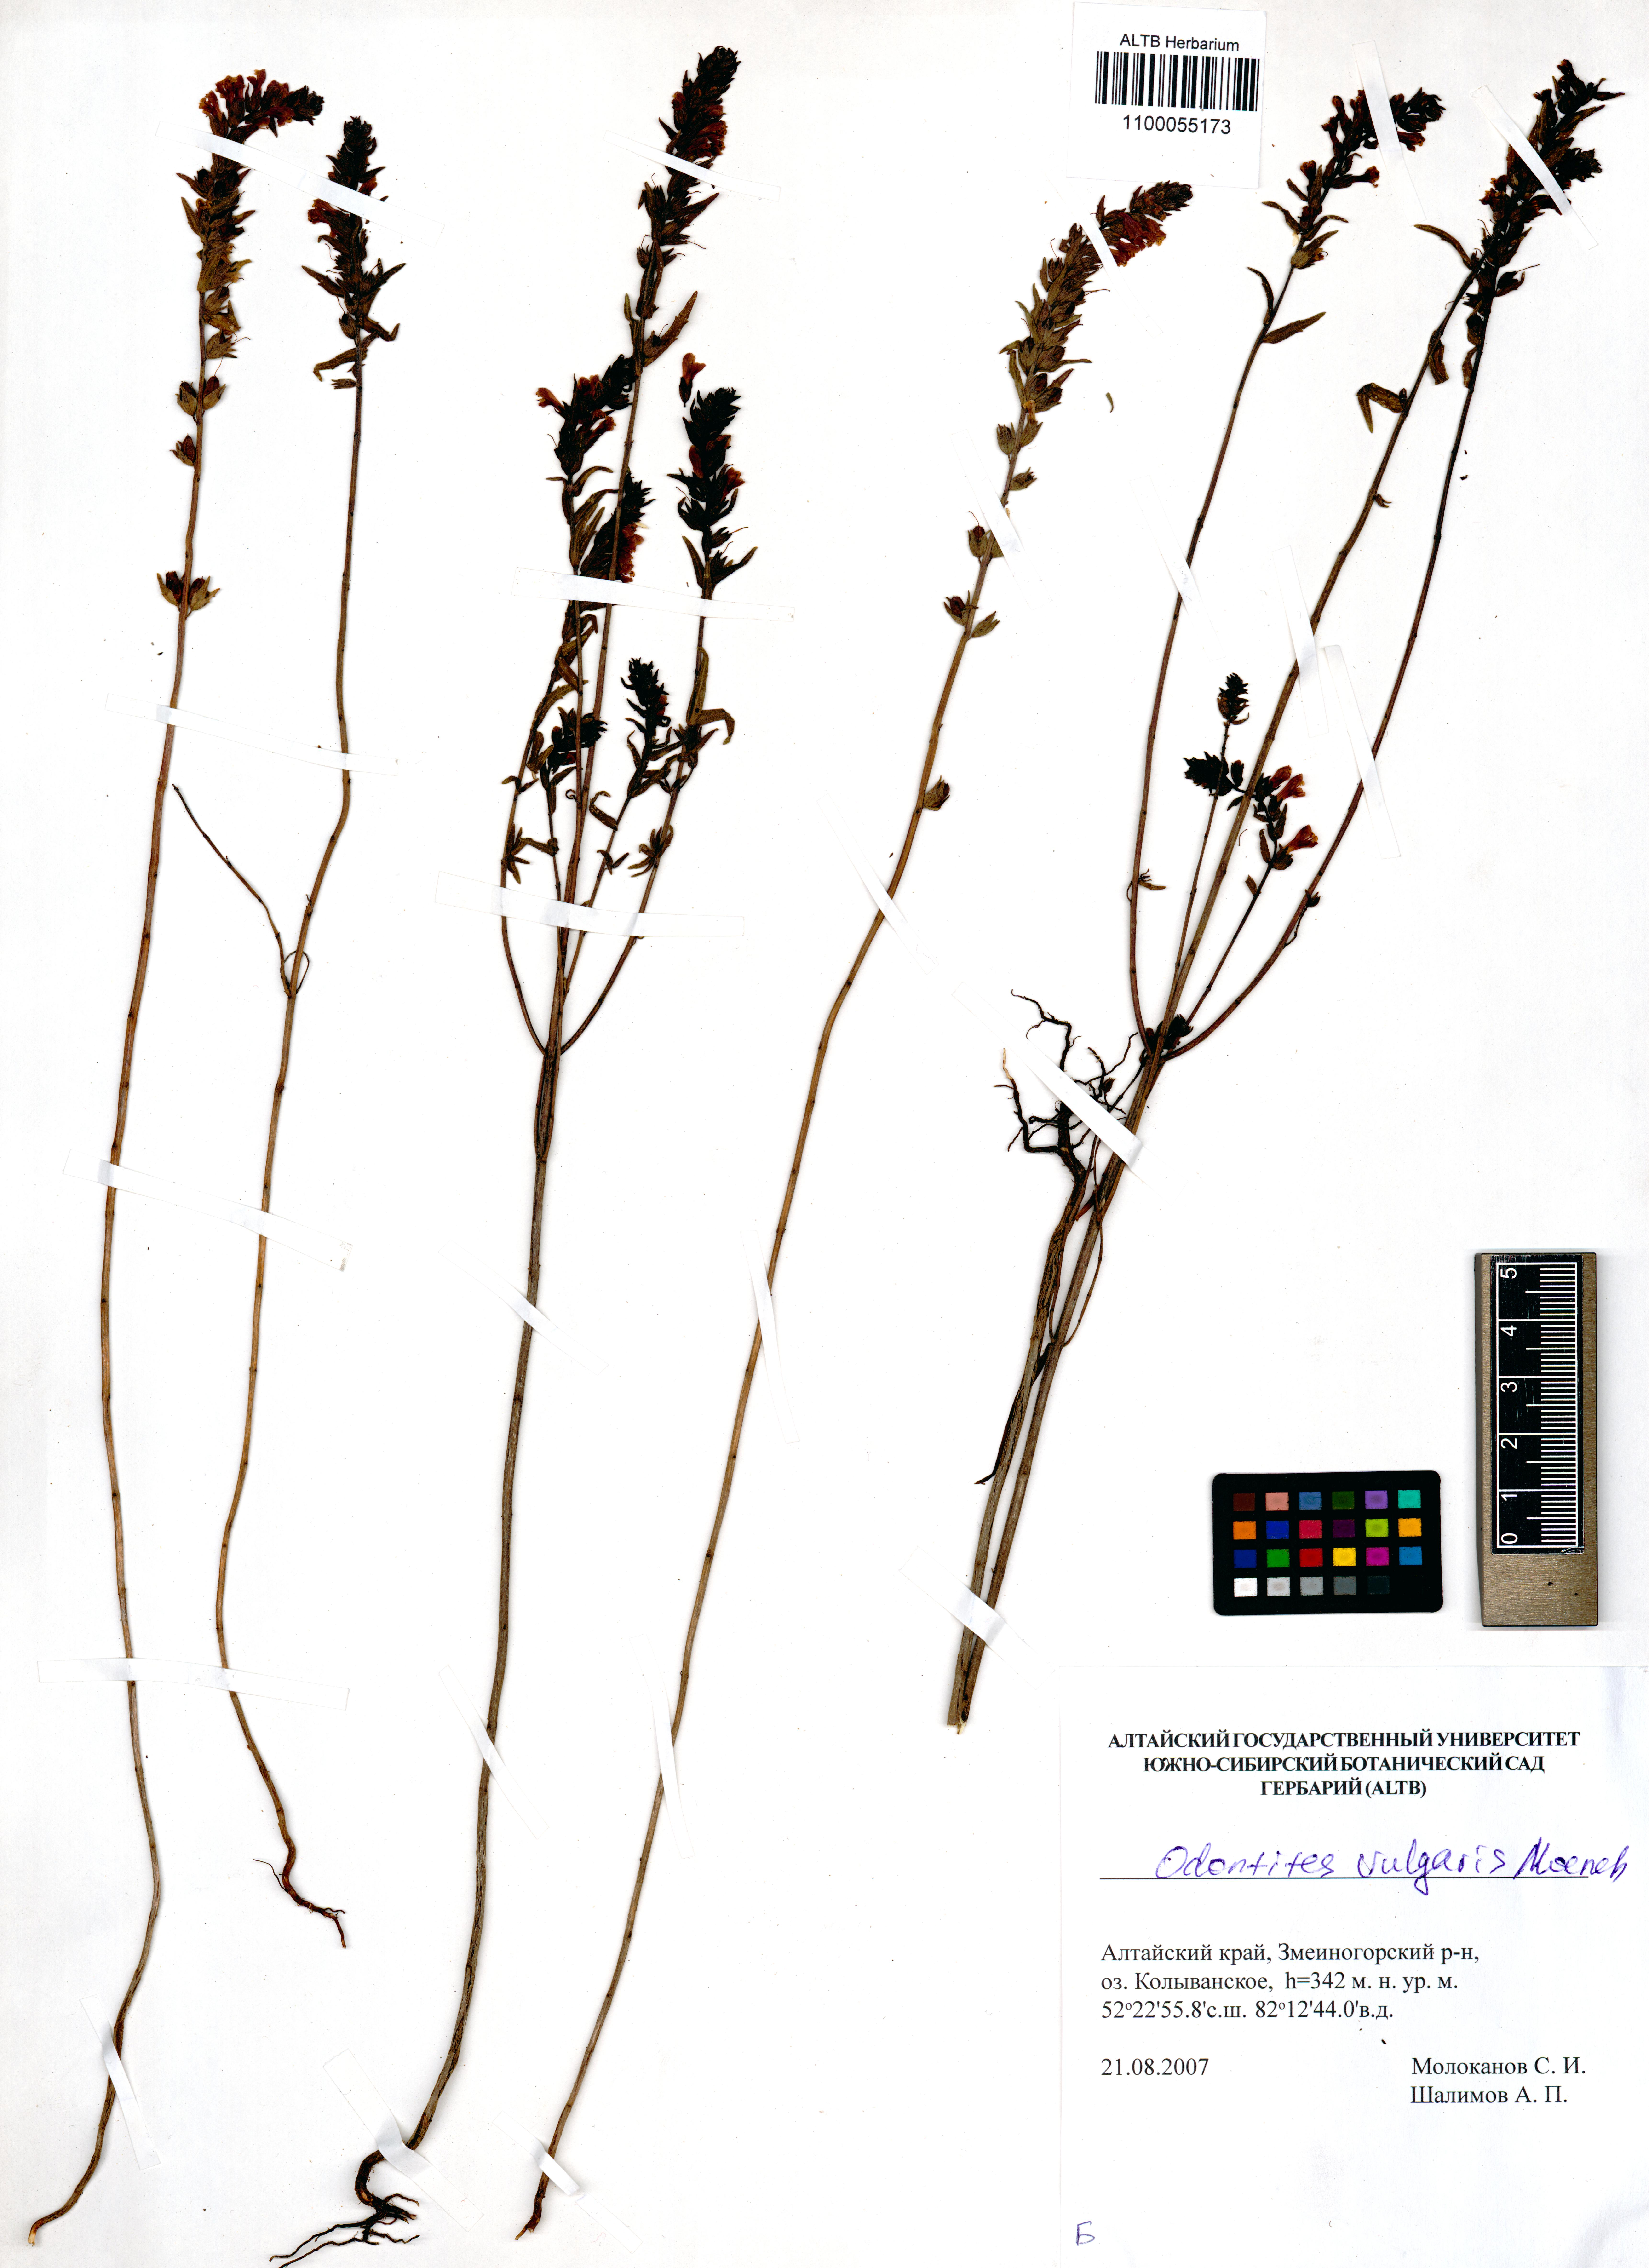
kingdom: Plantae
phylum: Tracheophyta
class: Magnoliopsida
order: Lamiales
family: Orobanchaceae
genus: Odontites
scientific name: Odontites vulgaris
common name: Broomrape
